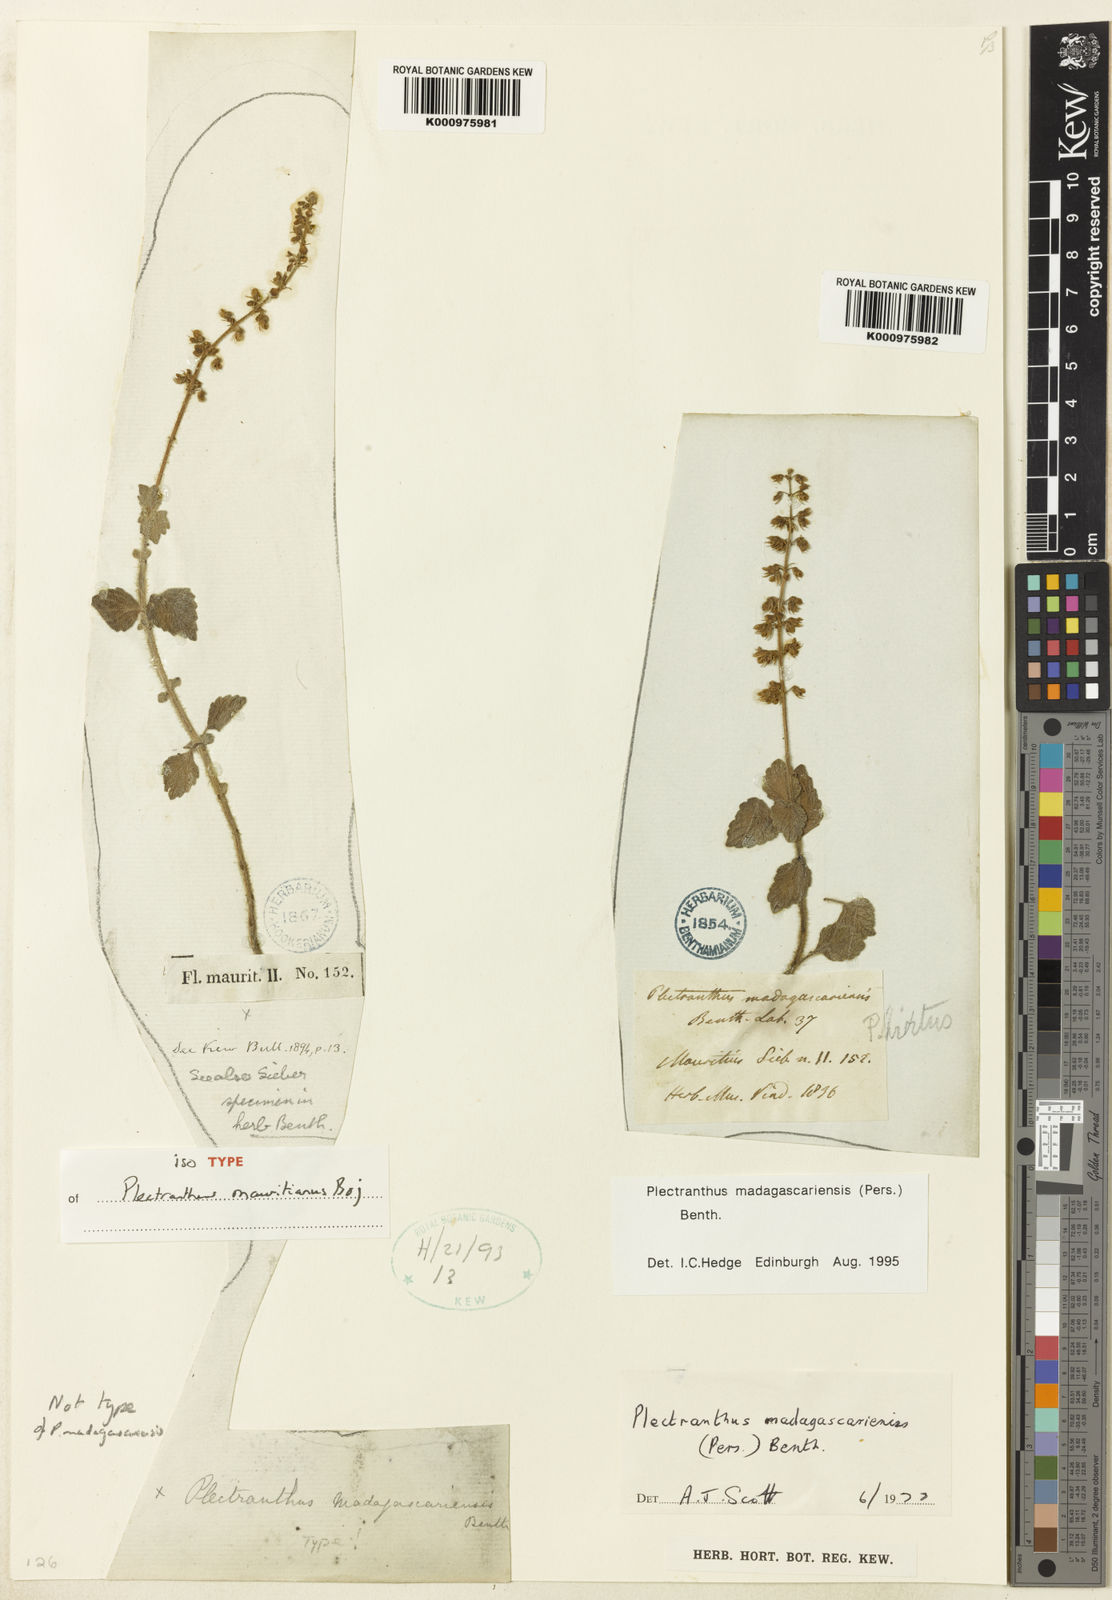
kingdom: Plantae
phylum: Tracheophyta
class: Magnoliopsida
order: Lamiales
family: Lamiaceae
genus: Coleus
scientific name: Coleus madagascariensis
